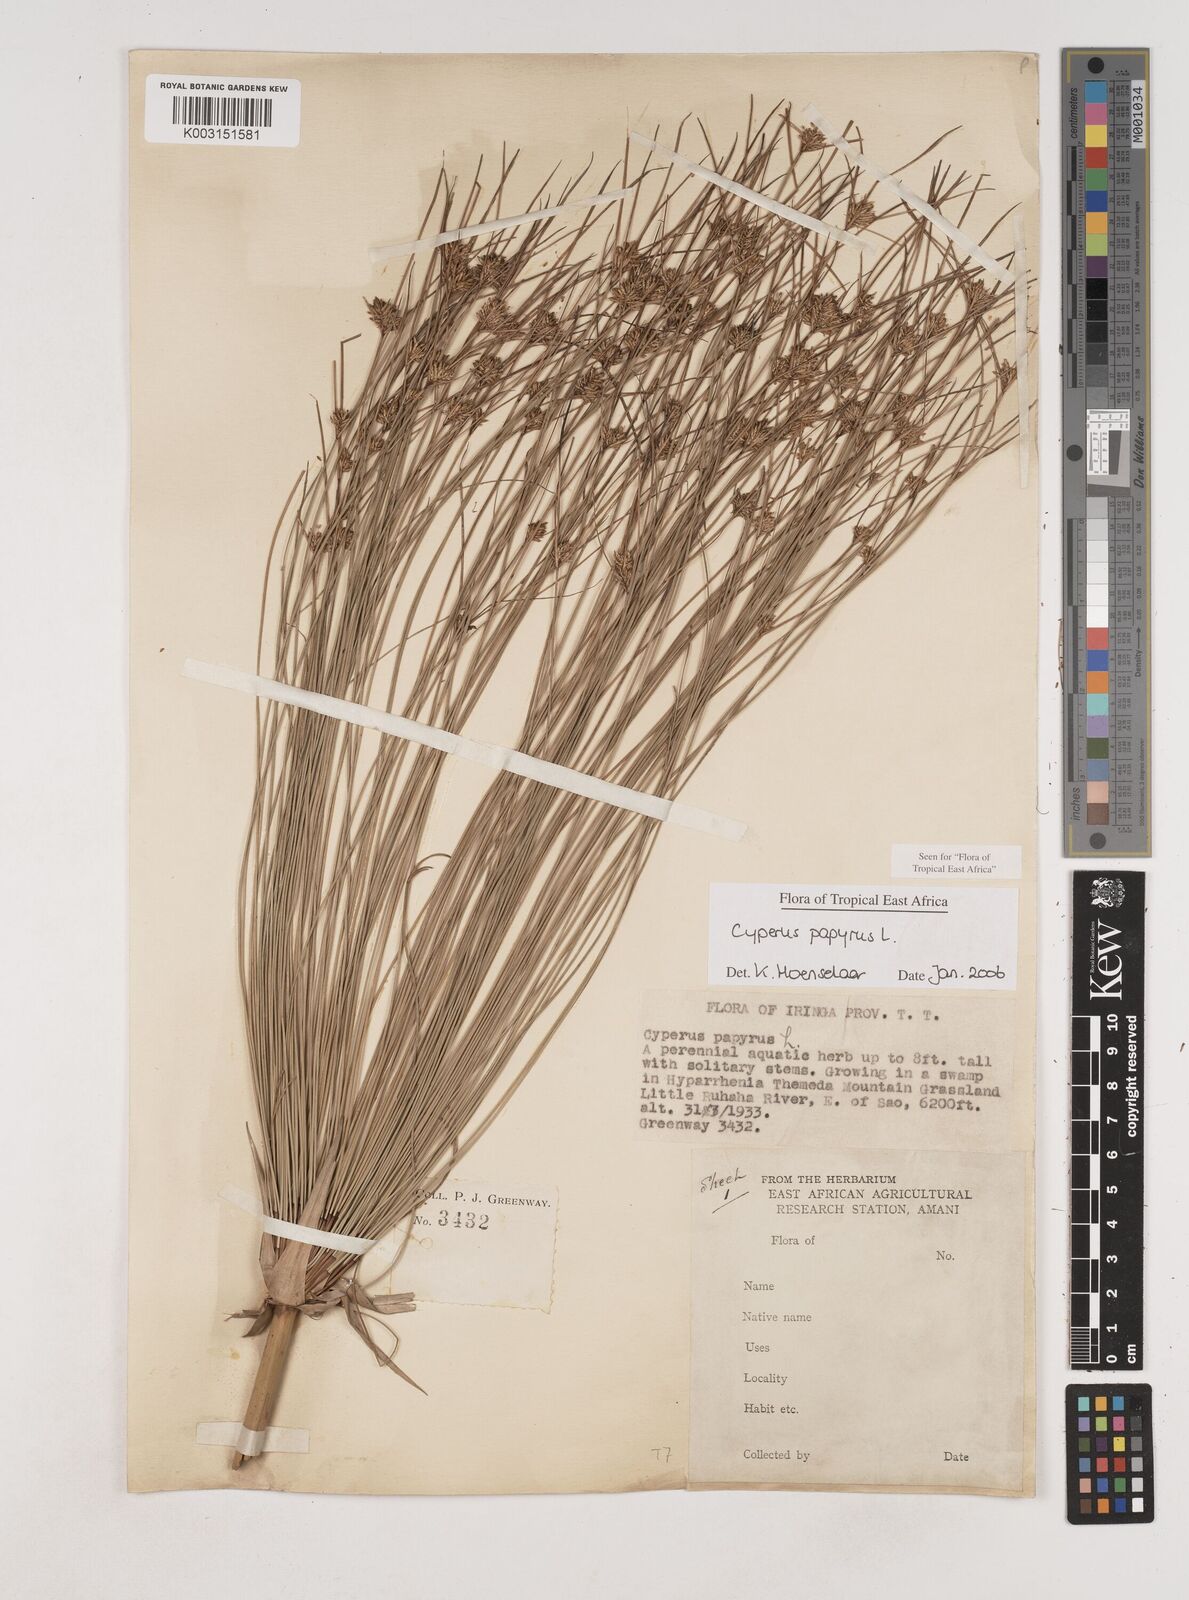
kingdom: Plantae
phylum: Tracheophyta
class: Liliopsida
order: Poales
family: Cyperaceae
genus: Cyperus
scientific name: Cyperus papyrus
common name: Papyrus
